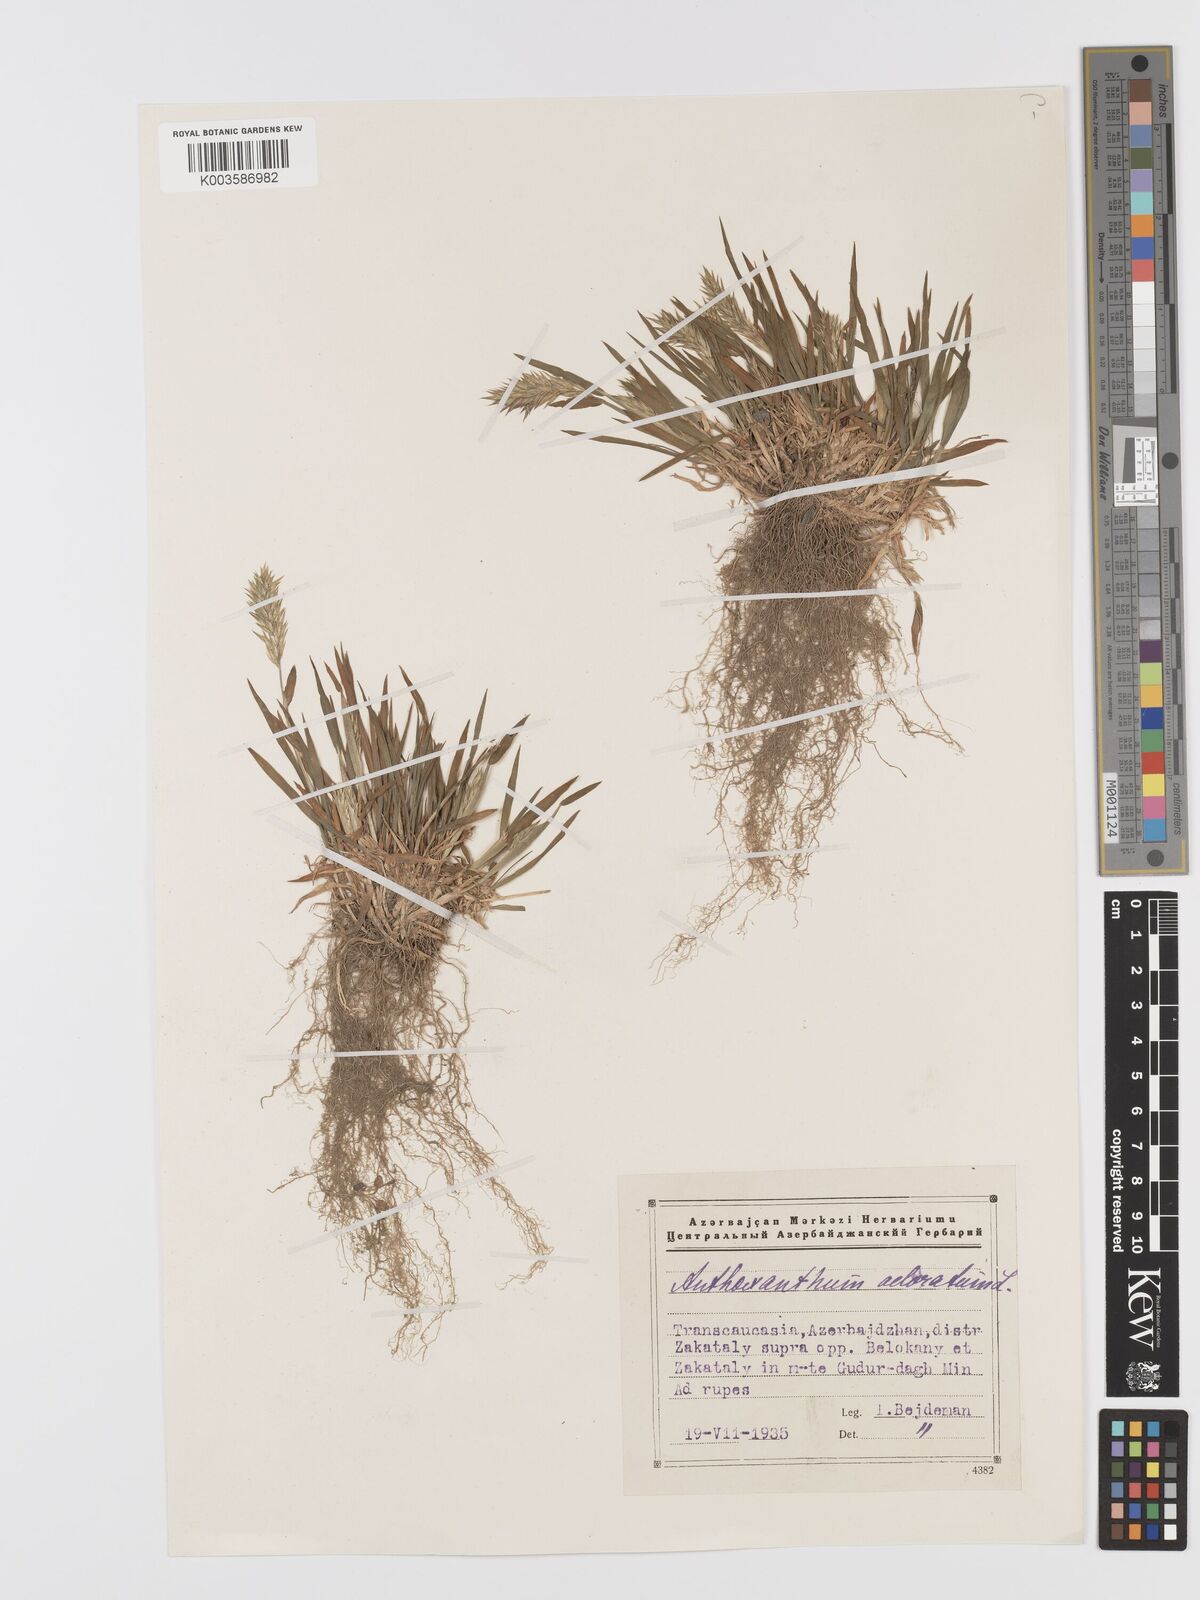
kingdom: Plantae
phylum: Tracheophyta
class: Liliopsida
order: Poales
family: Poaceae
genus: Anthoxanthum
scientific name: Anthoxanthum odoratum
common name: Sweet vernalgrass
